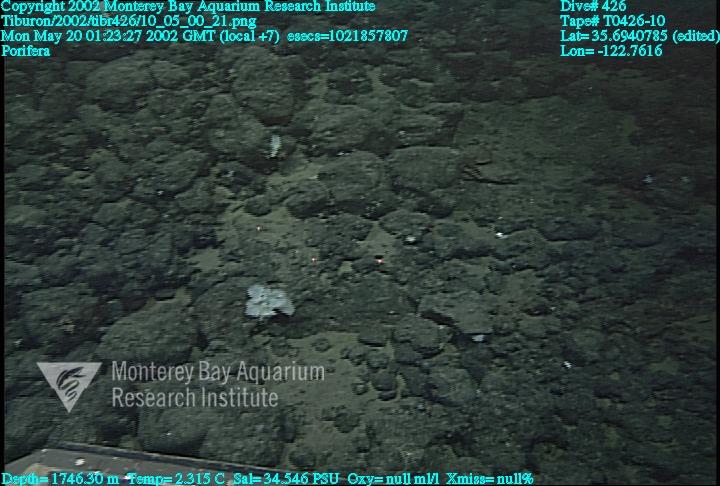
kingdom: Animalia
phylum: Porifera
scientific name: Porifera
